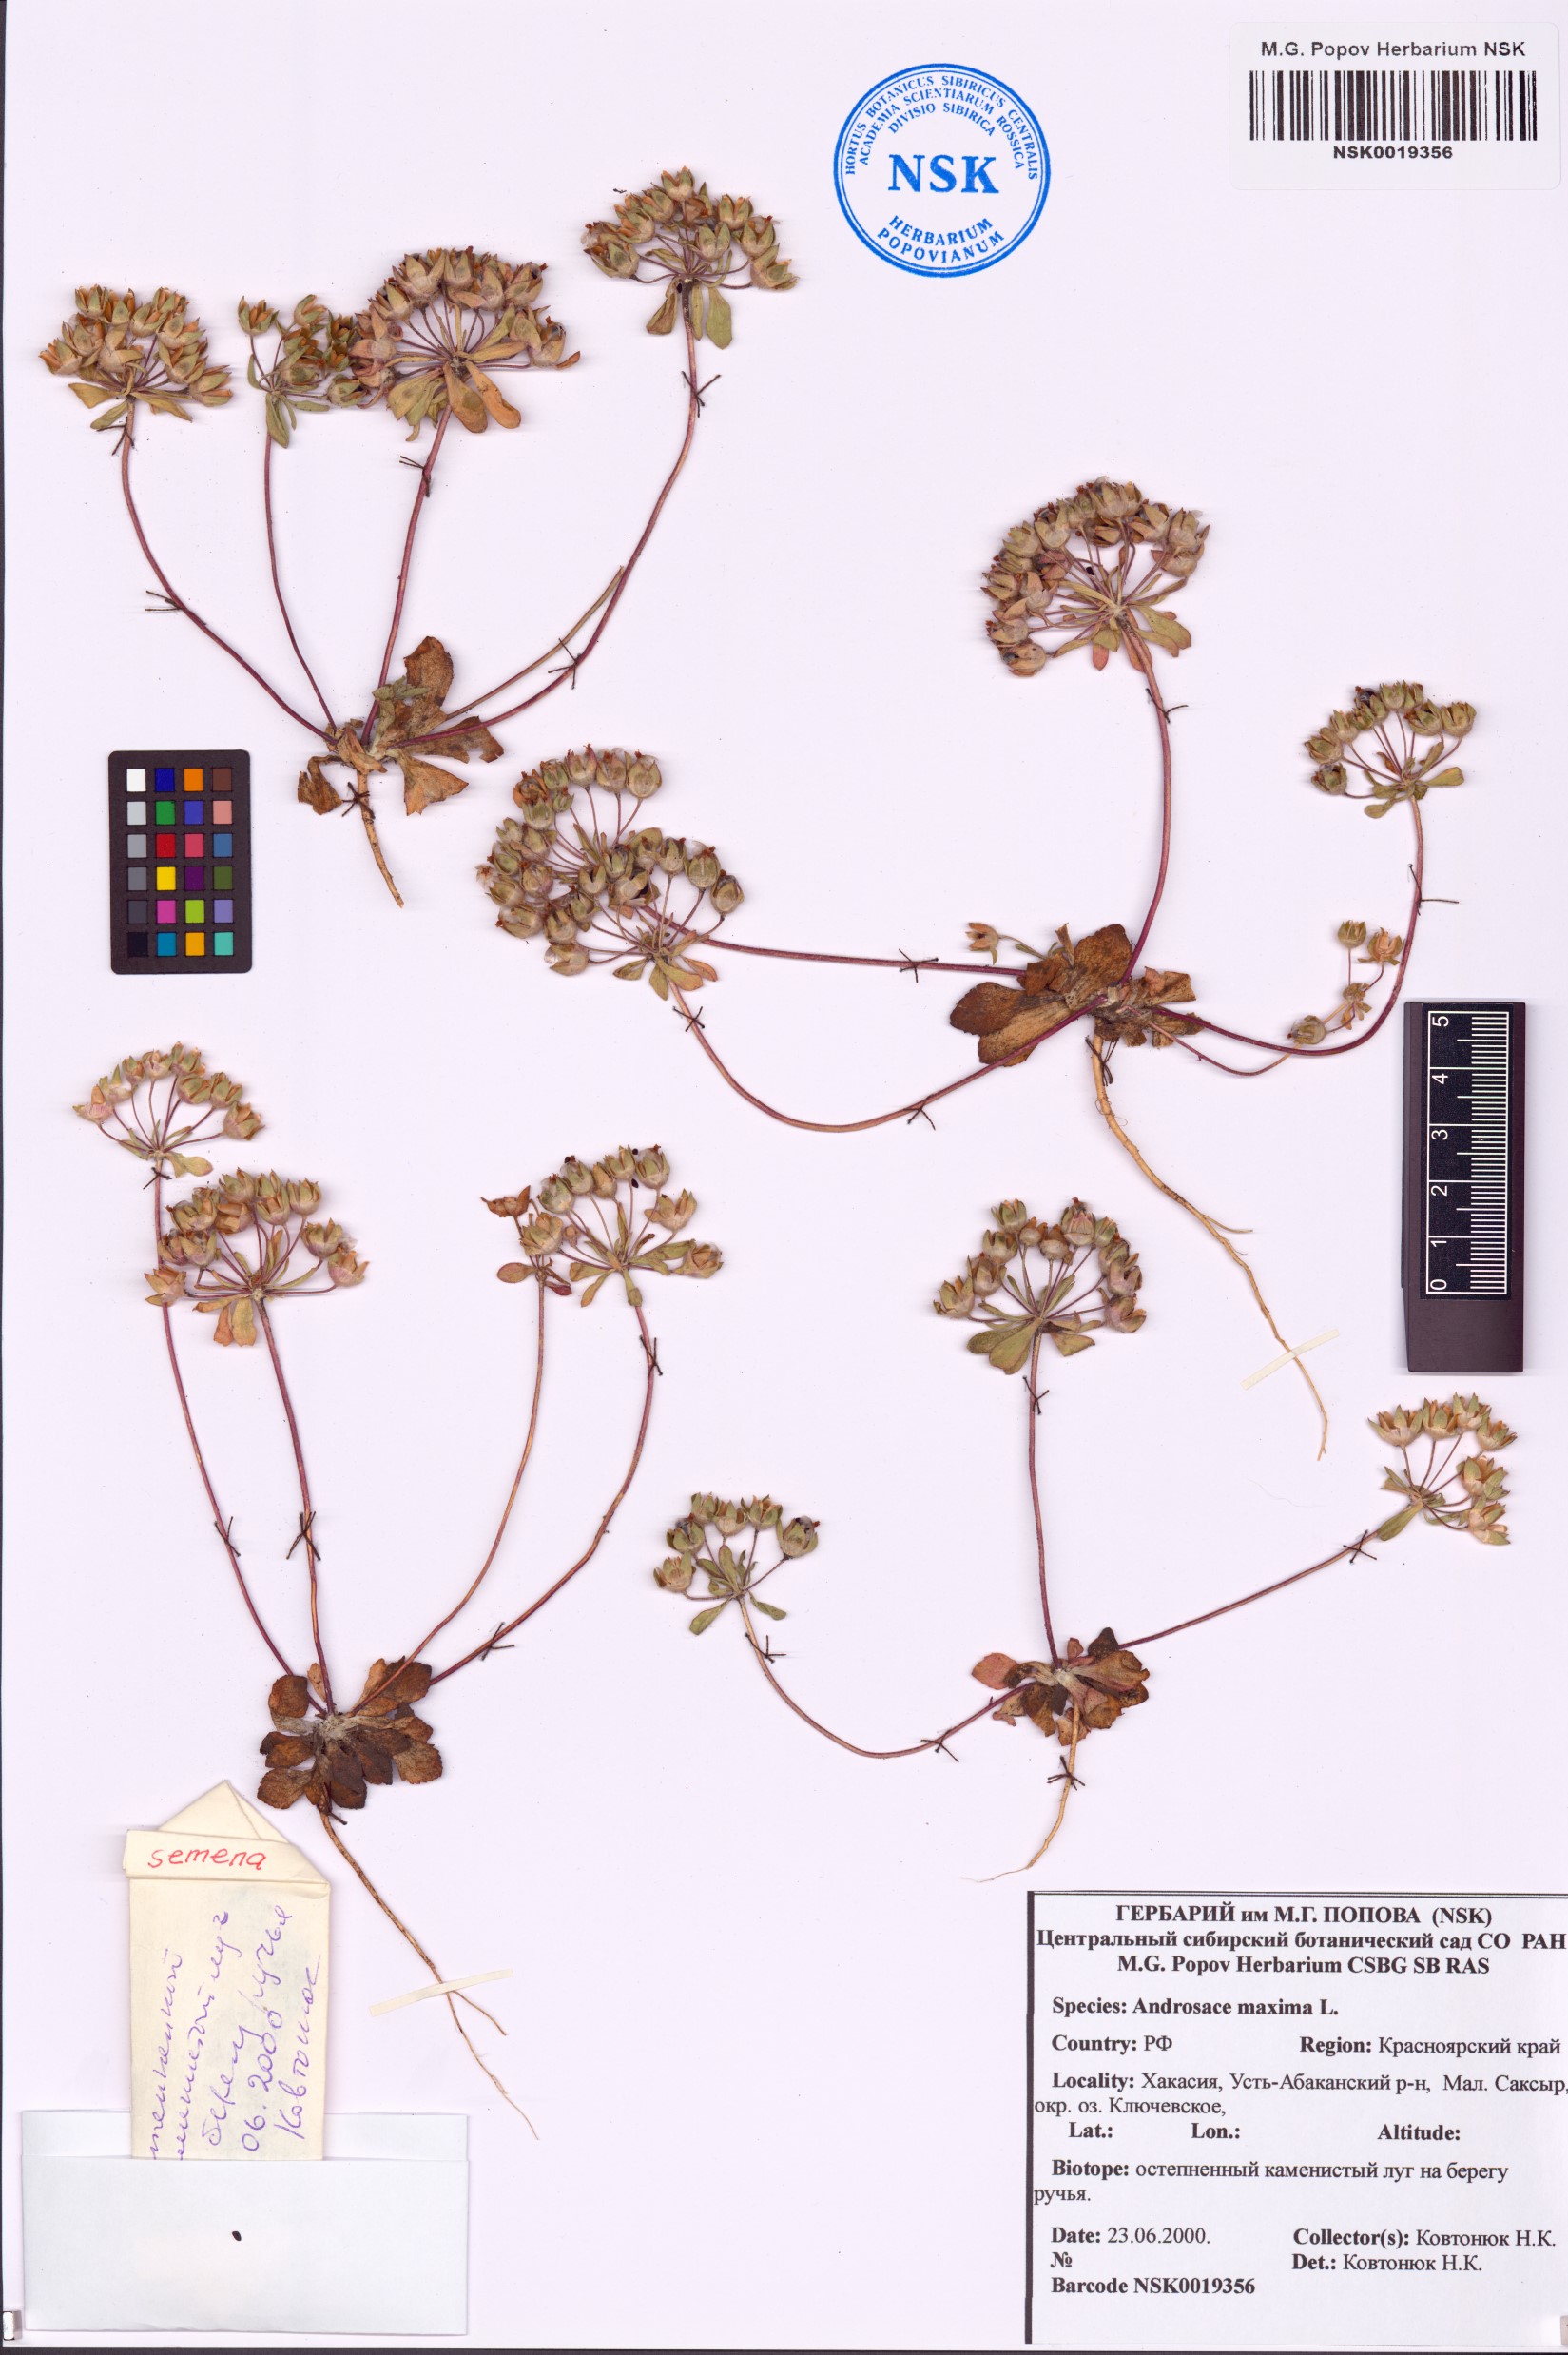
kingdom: Plantae
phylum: Tracheophyta
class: Magnoliopsida
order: Ericales
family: Primulaceae
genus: Androsace
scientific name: Androsace maxima
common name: Annual androsace
